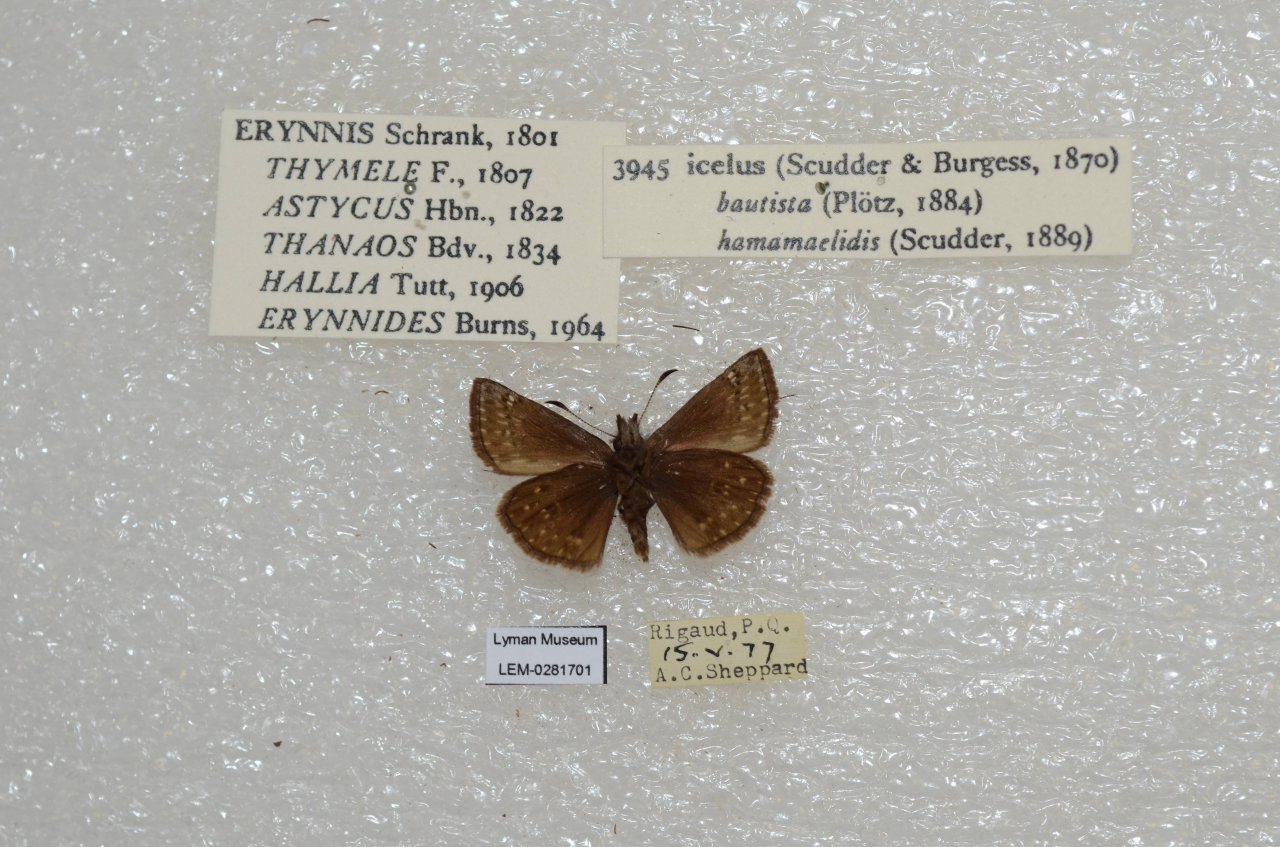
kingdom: Animalia
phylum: Arthropoda
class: Insecta
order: Lepidoptera
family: Hesperiidae
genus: Erynnis
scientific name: Erynnis icelus
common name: Dreamy Duskywing
